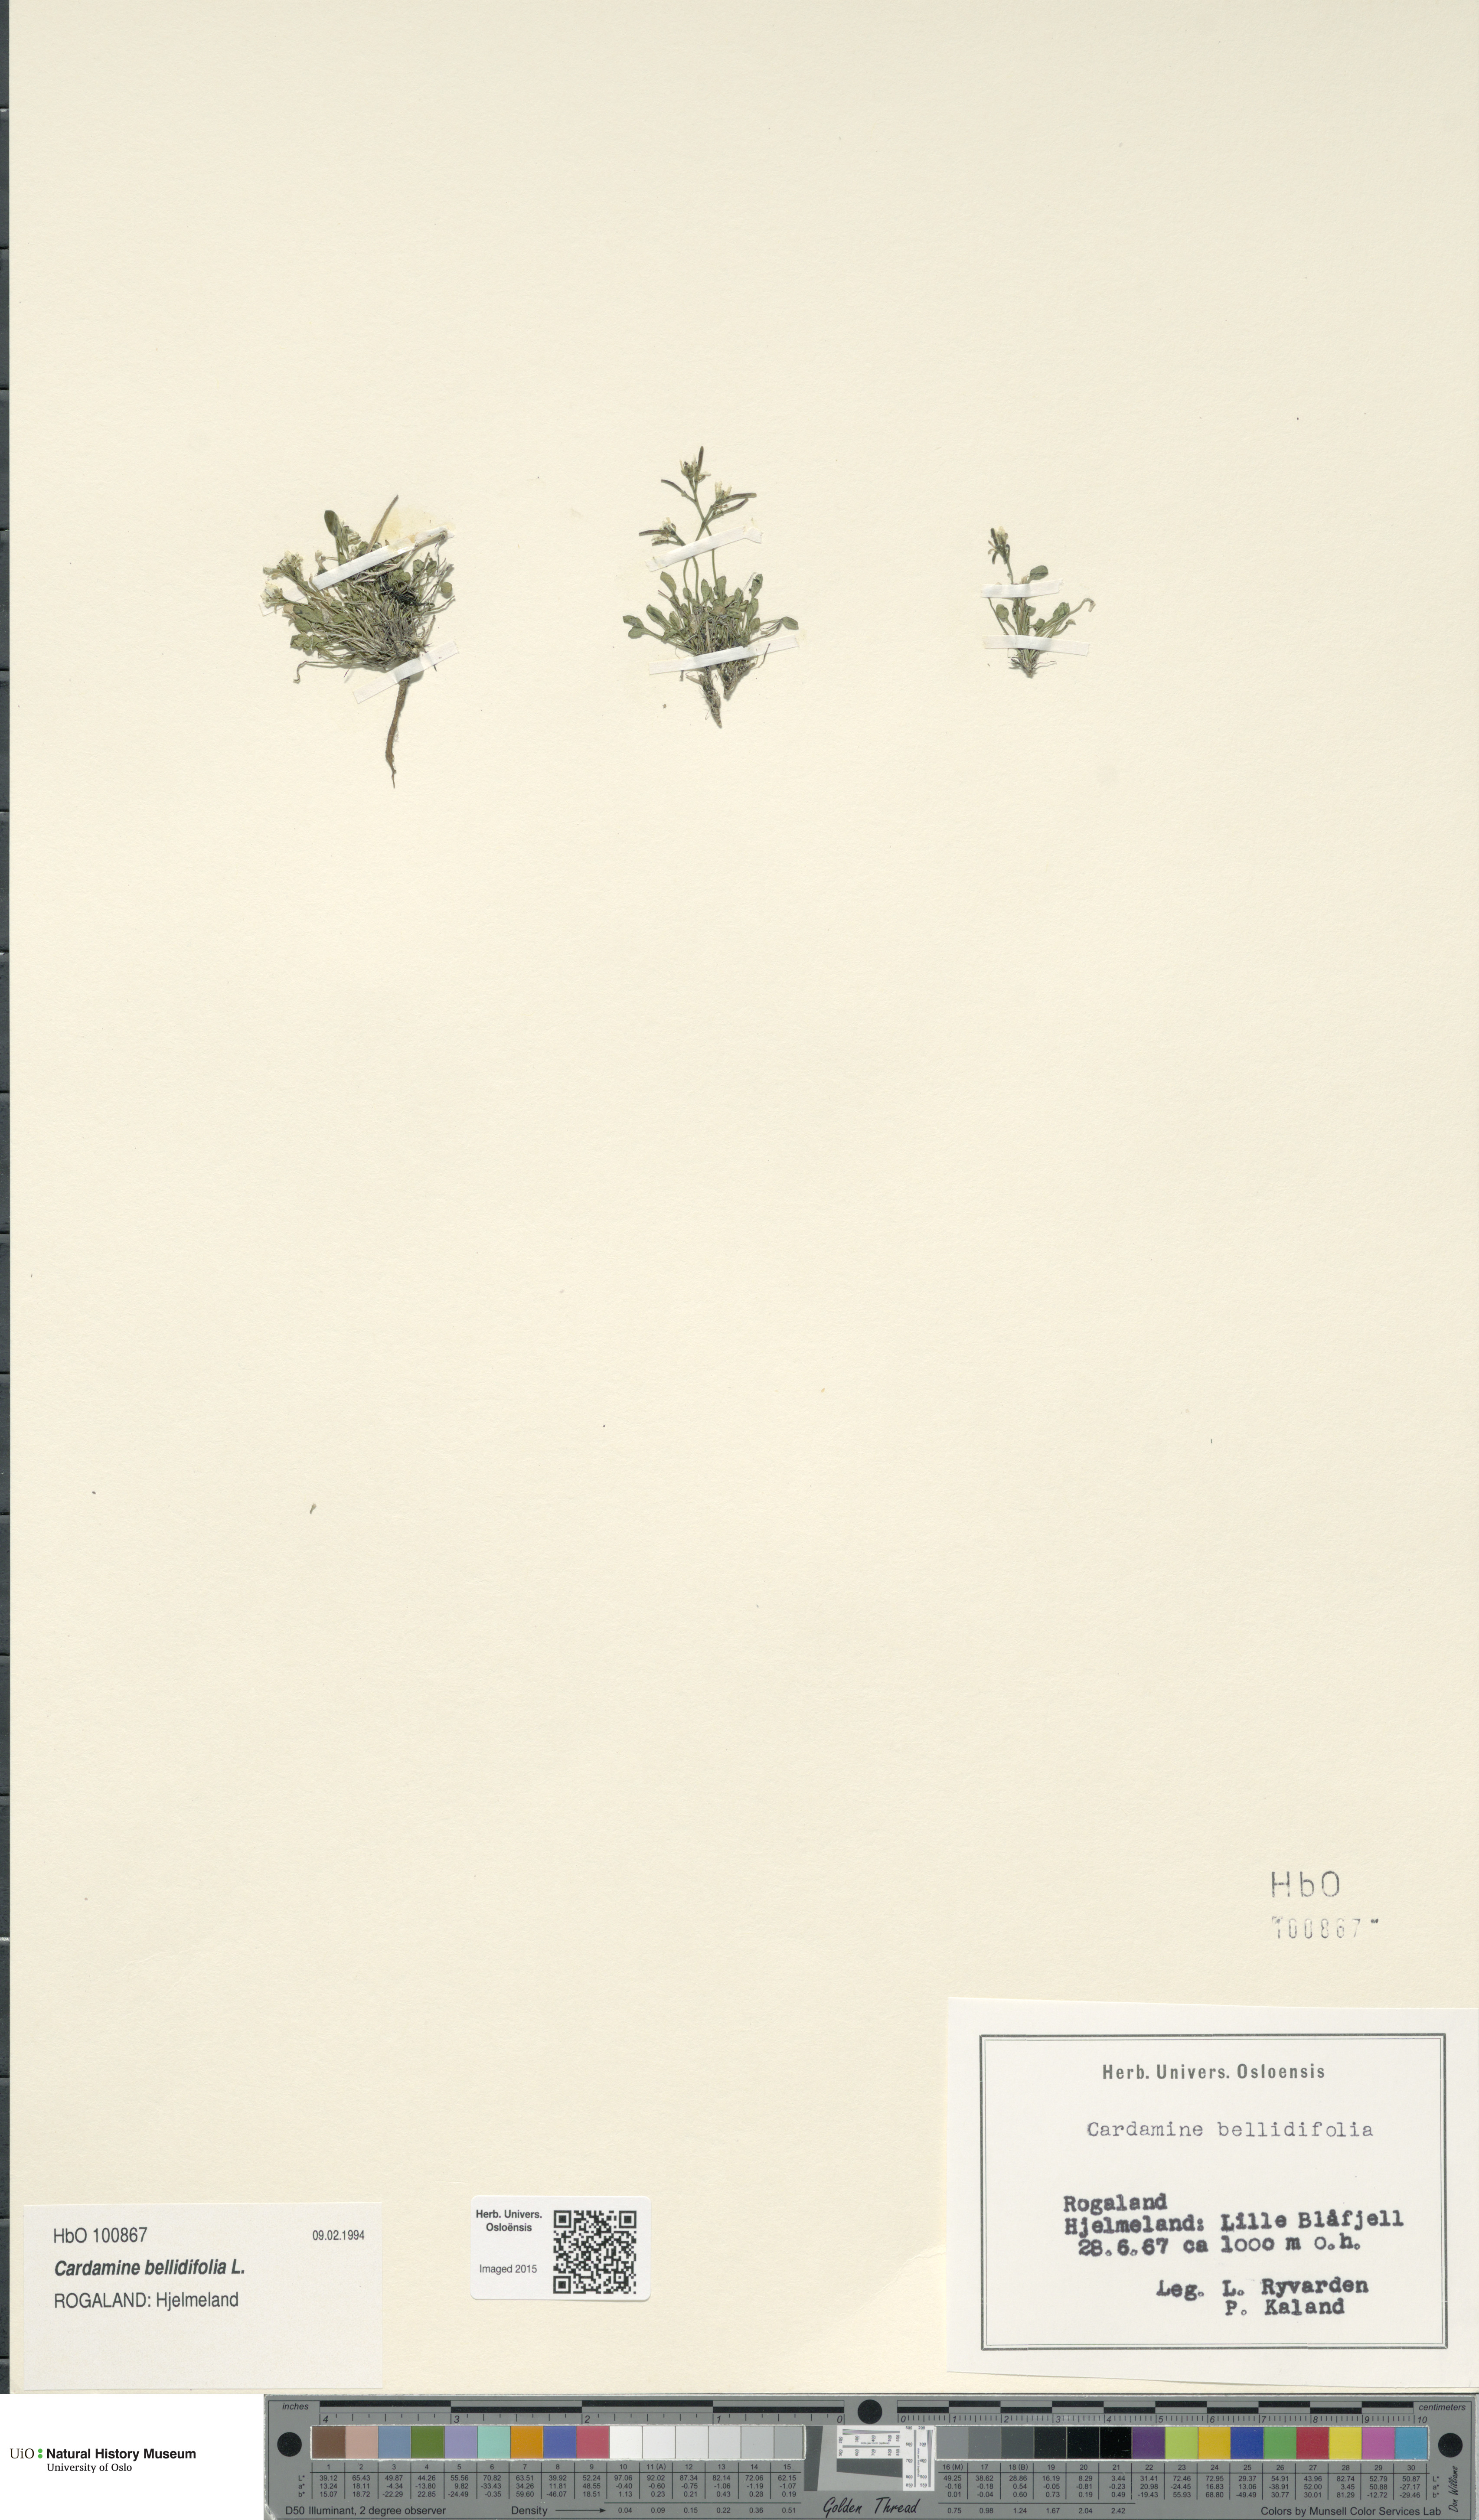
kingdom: Plantae
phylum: Tracheophyta
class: Magnoliopsida
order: Brassicales
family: Brassicaceae
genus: Cardamine
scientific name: Cardamine bellidifolia
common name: Alpine bittercress
